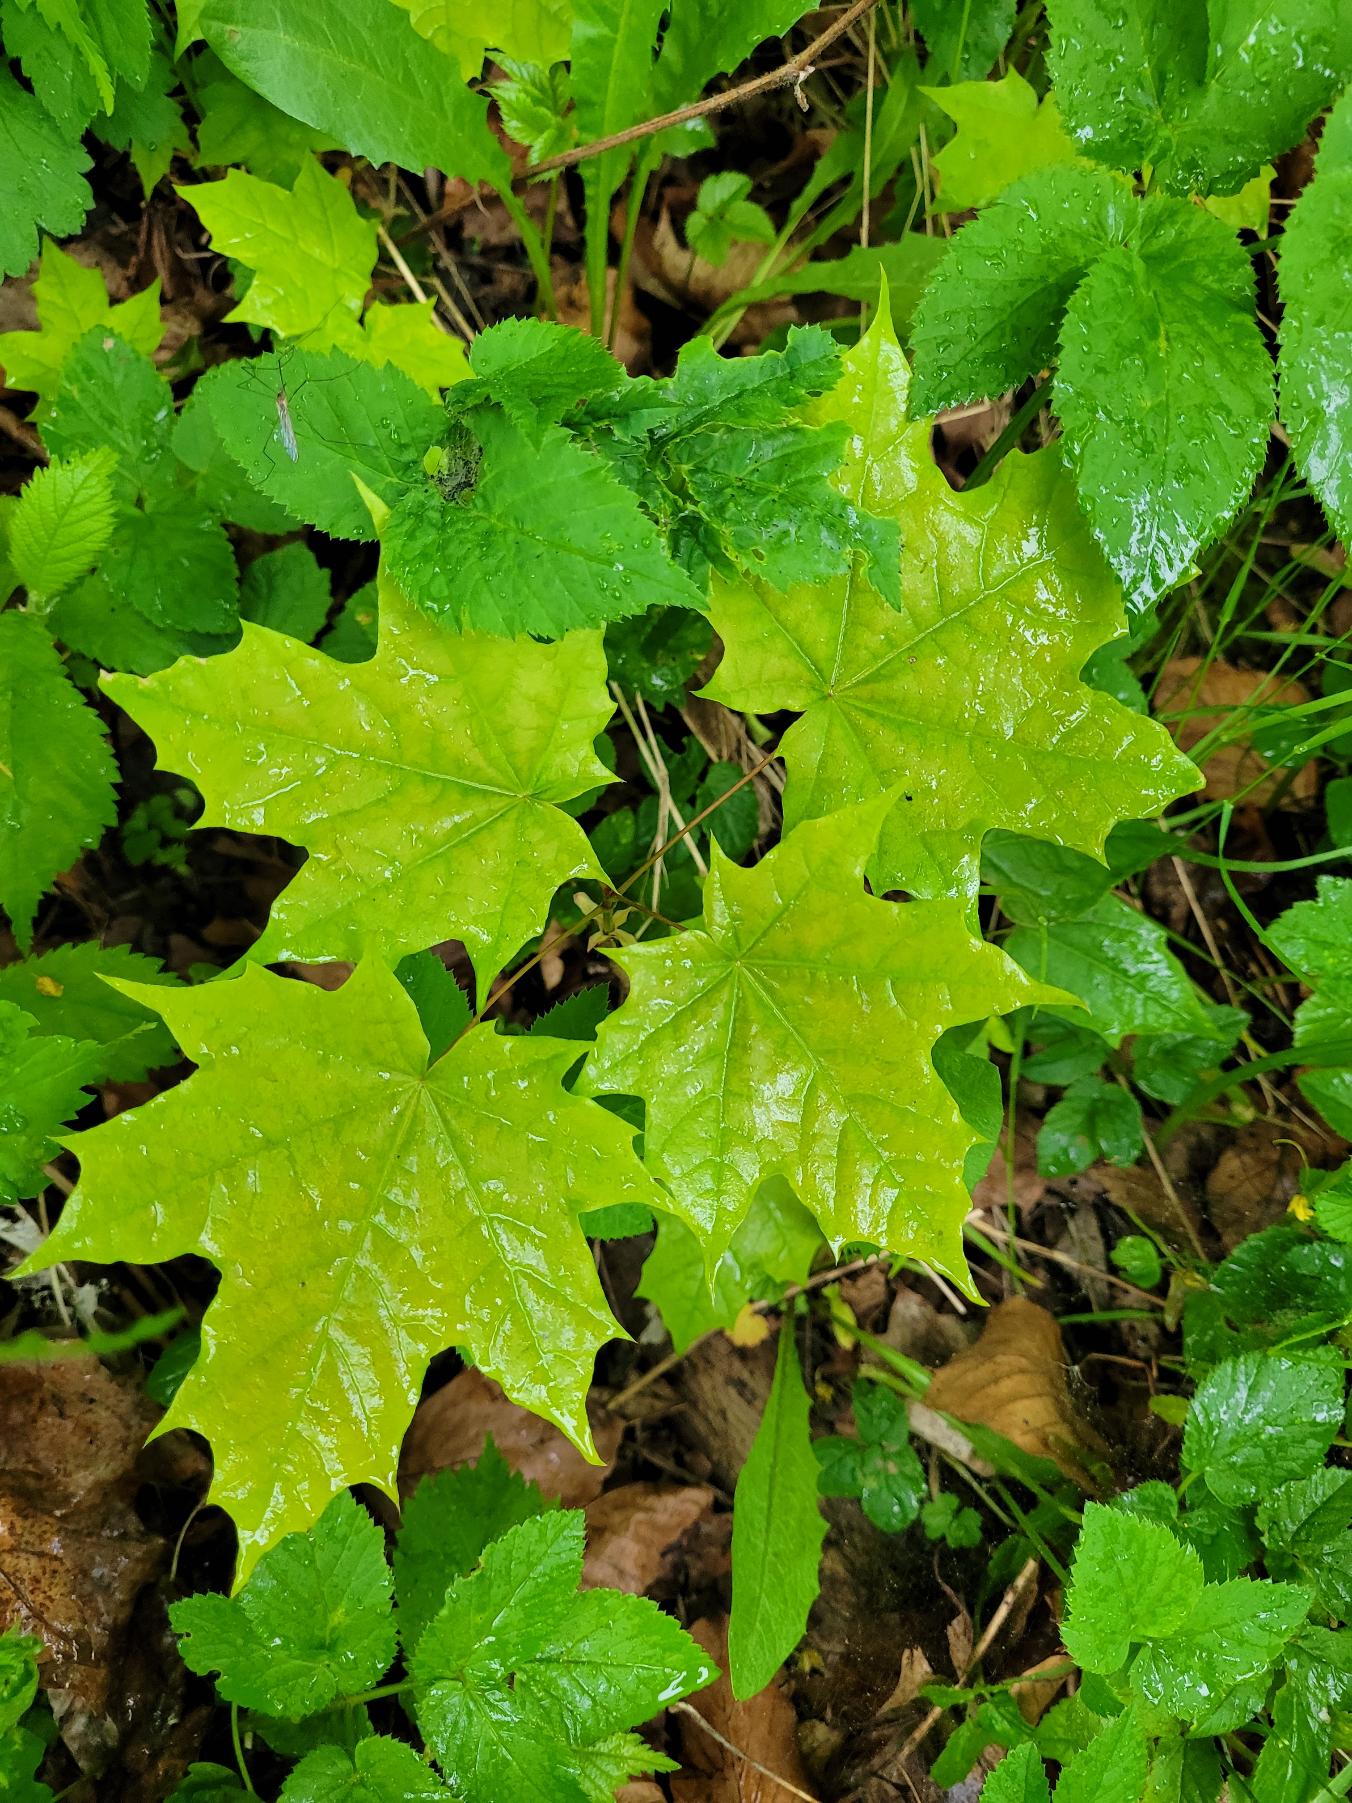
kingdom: Plantae
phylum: Tracheophyta
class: Magnoliopsida
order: Sapindales
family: Sapindaceae
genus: Acer
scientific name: Acer platanoides
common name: Spids-løn
